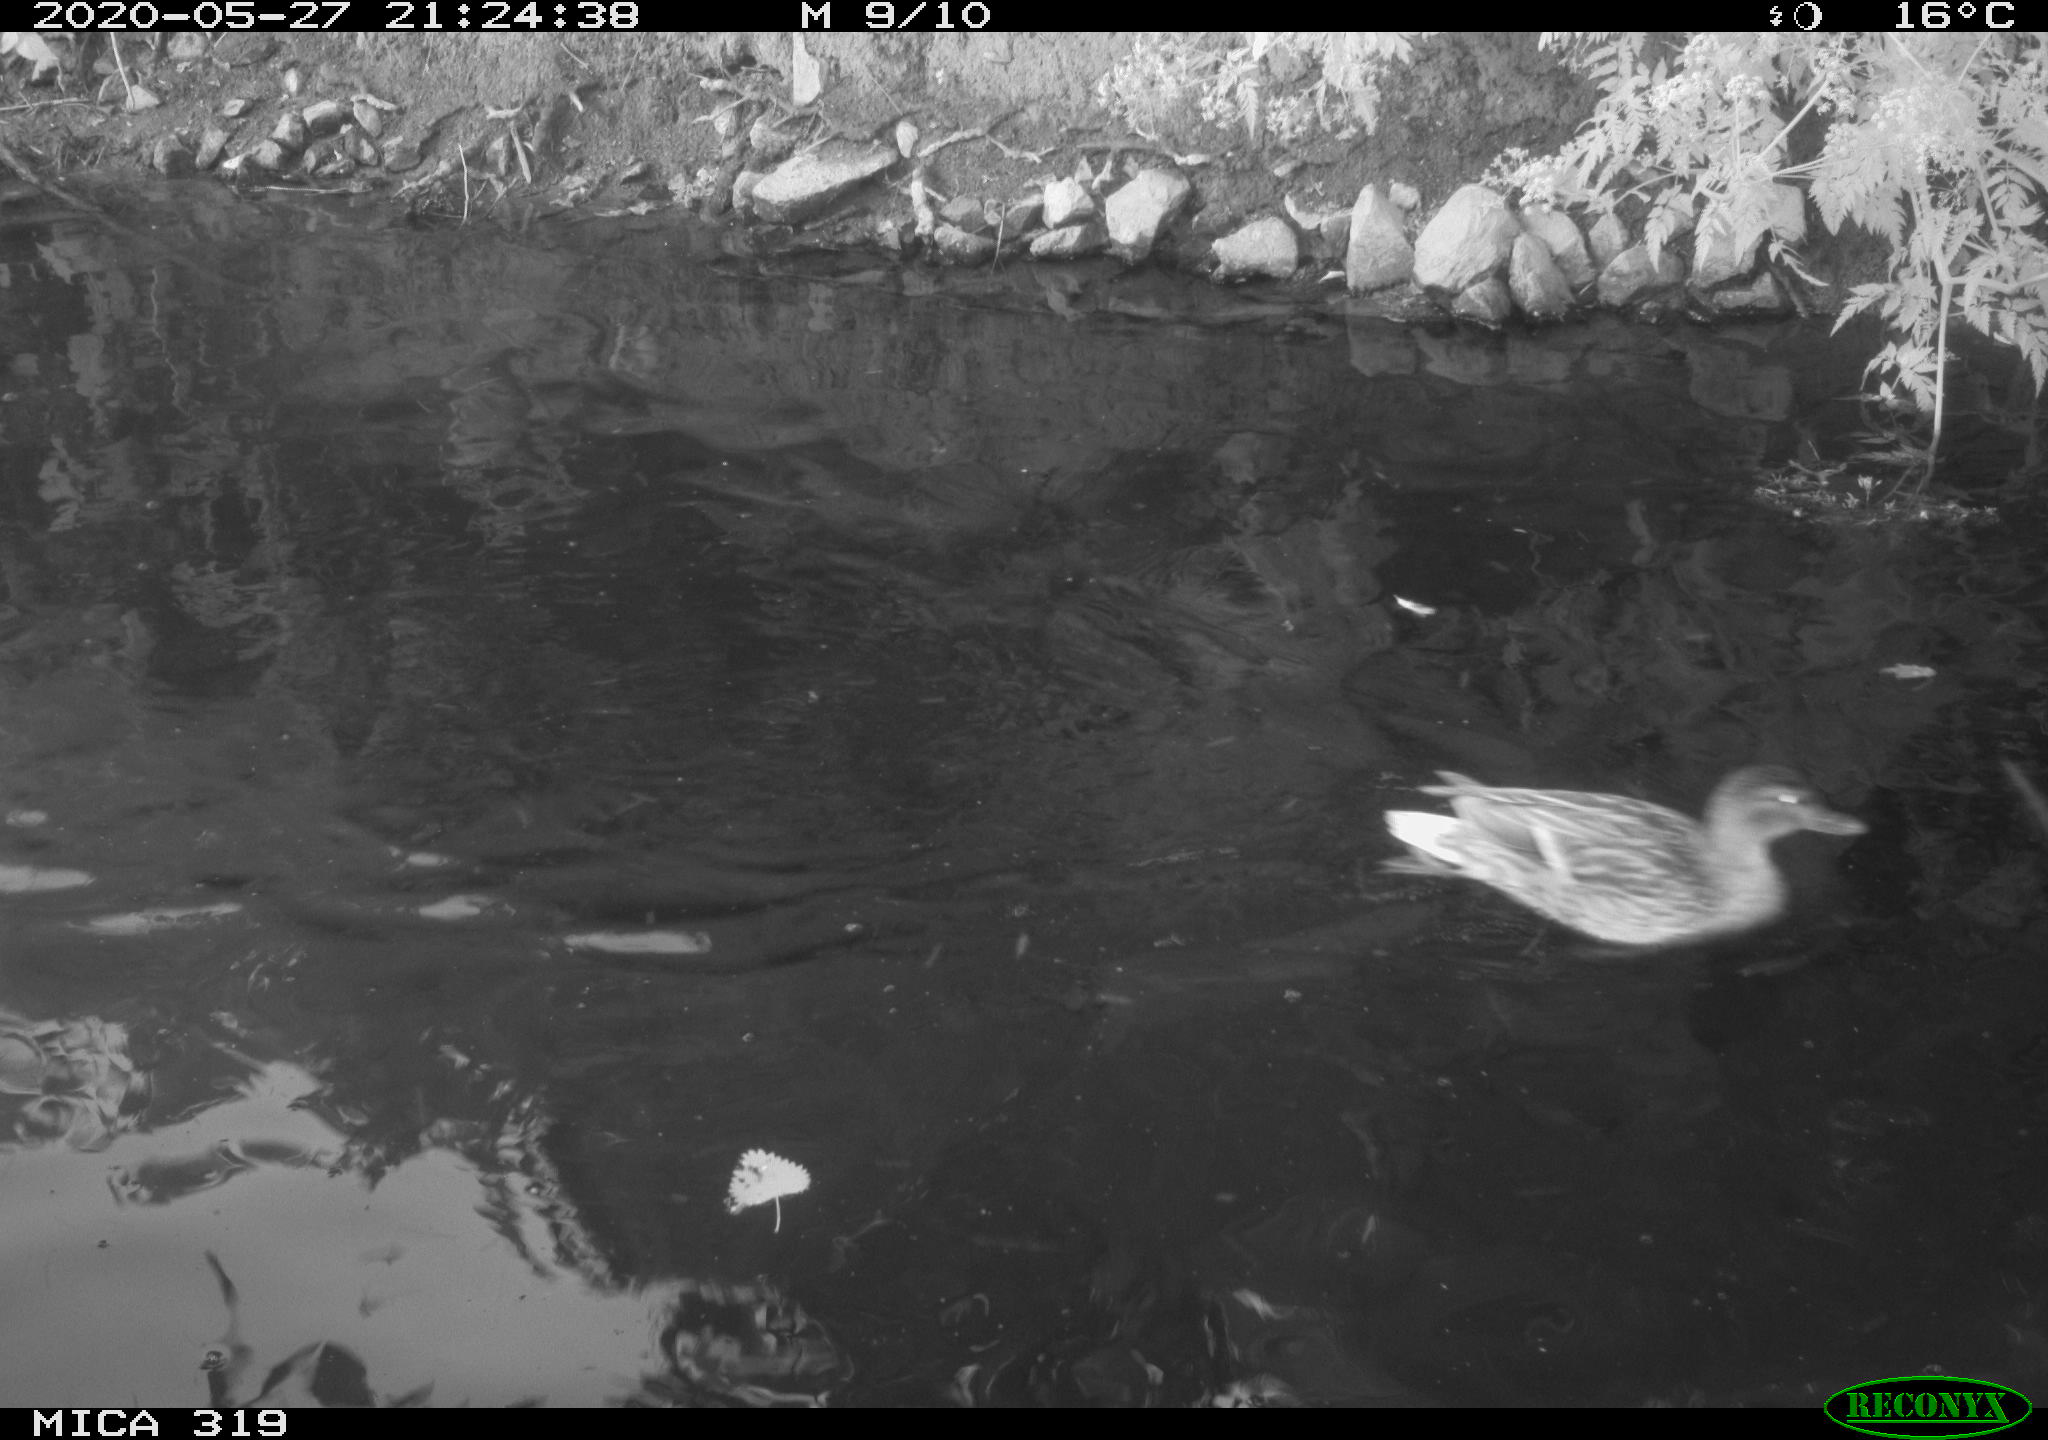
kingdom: Animalia
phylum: Chordata
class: Aves
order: Anseriformes
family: Anatidae
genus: Anas
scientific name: Anas platyrhynchos
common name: Mallard
